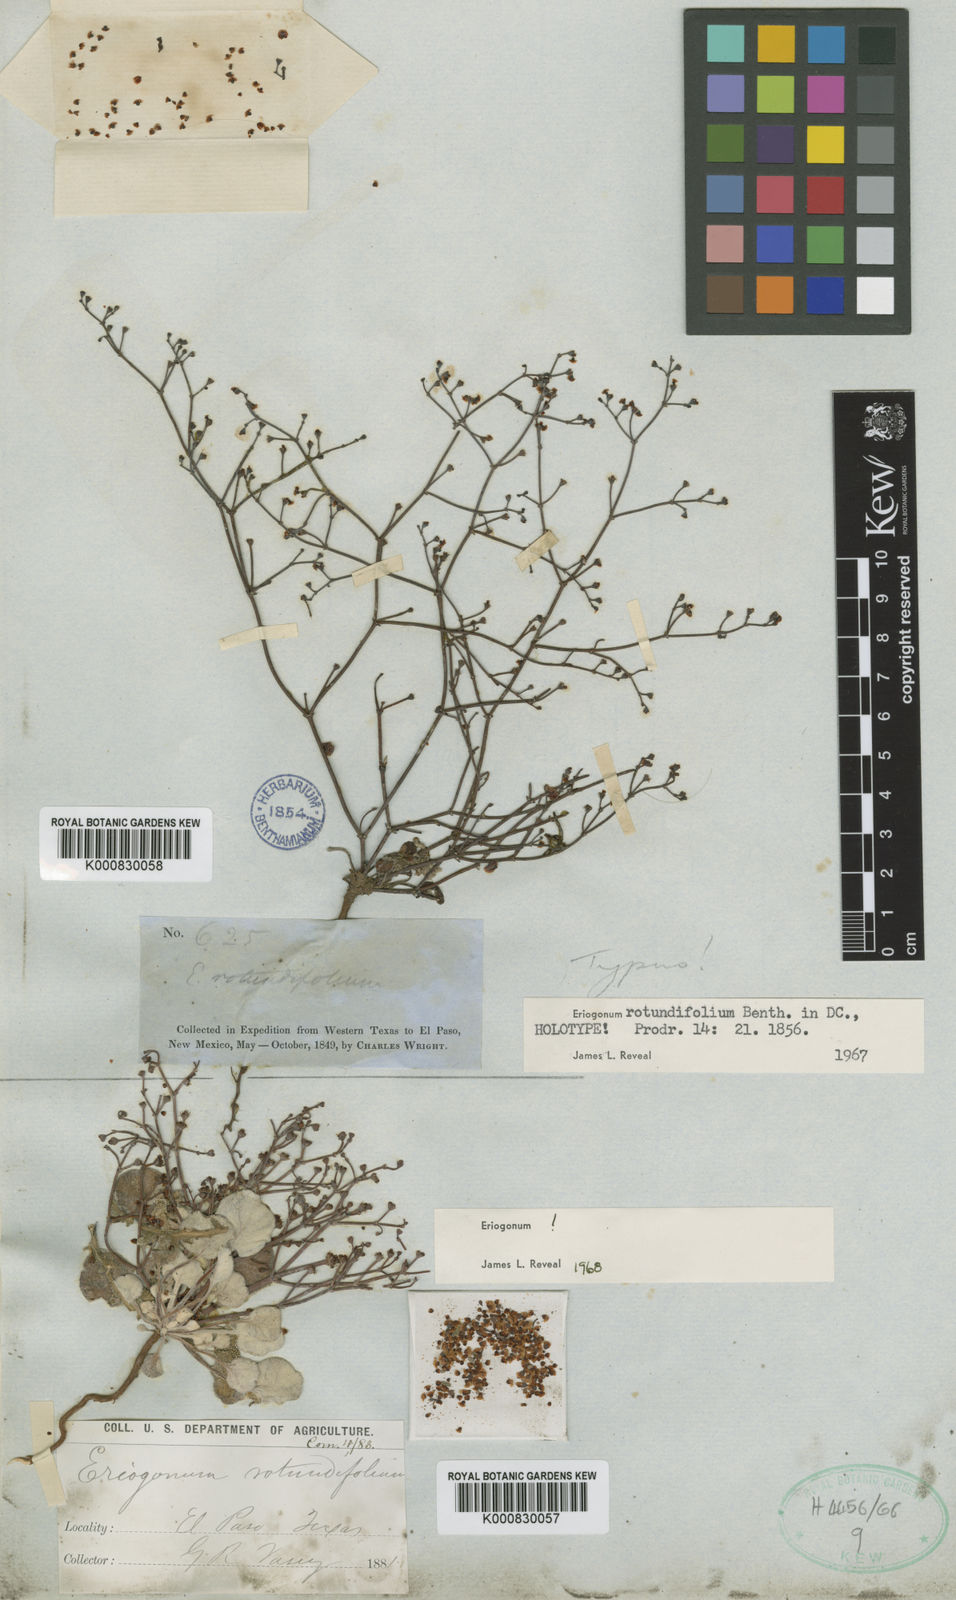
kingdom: Plantae
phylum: Tracheophyta
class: Magnoliopsida
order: Caryophyllales
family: Polygonaceae
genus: Eriogonum
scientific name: Eriogonum rotundifolium
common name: Round-leaf wild buckwheat
